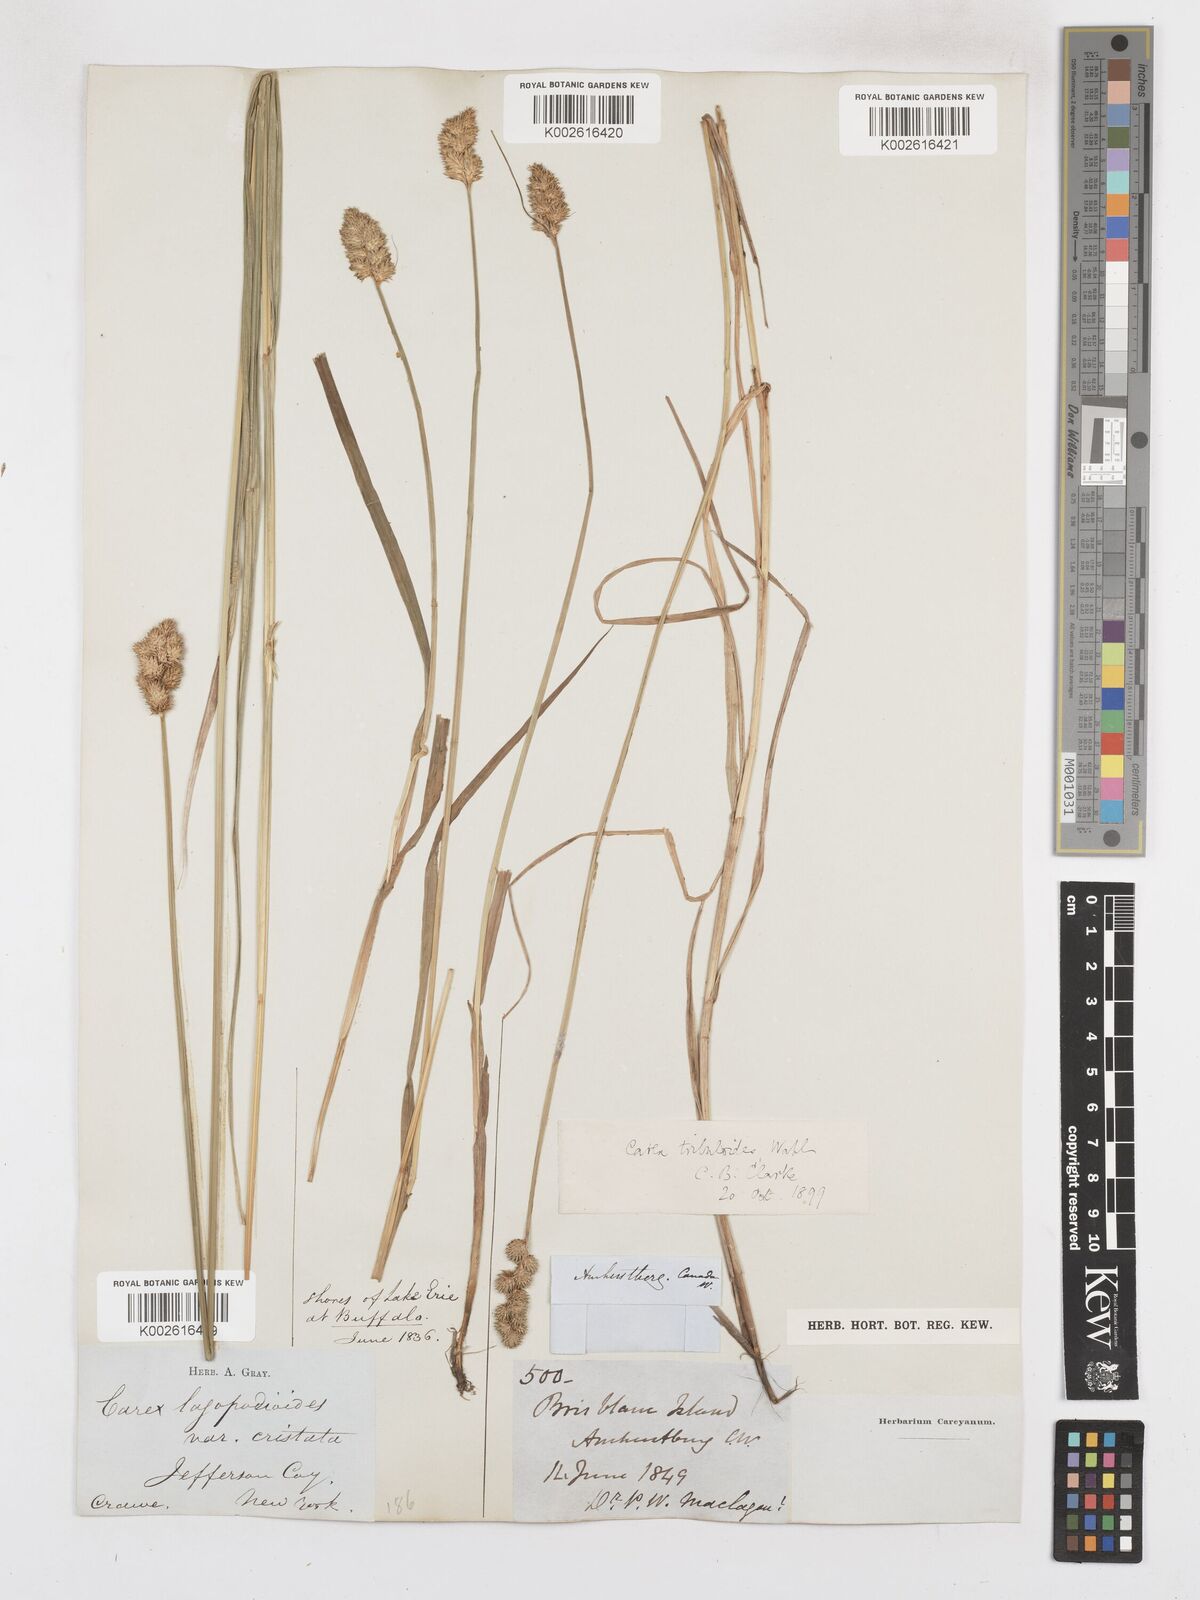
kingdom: Plantae
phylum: Tracheophyta
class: Liliopsida
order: Poales
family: Cyperaceae
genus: Carex
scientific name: Carex tribuloides
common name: Blunt broom sedge
